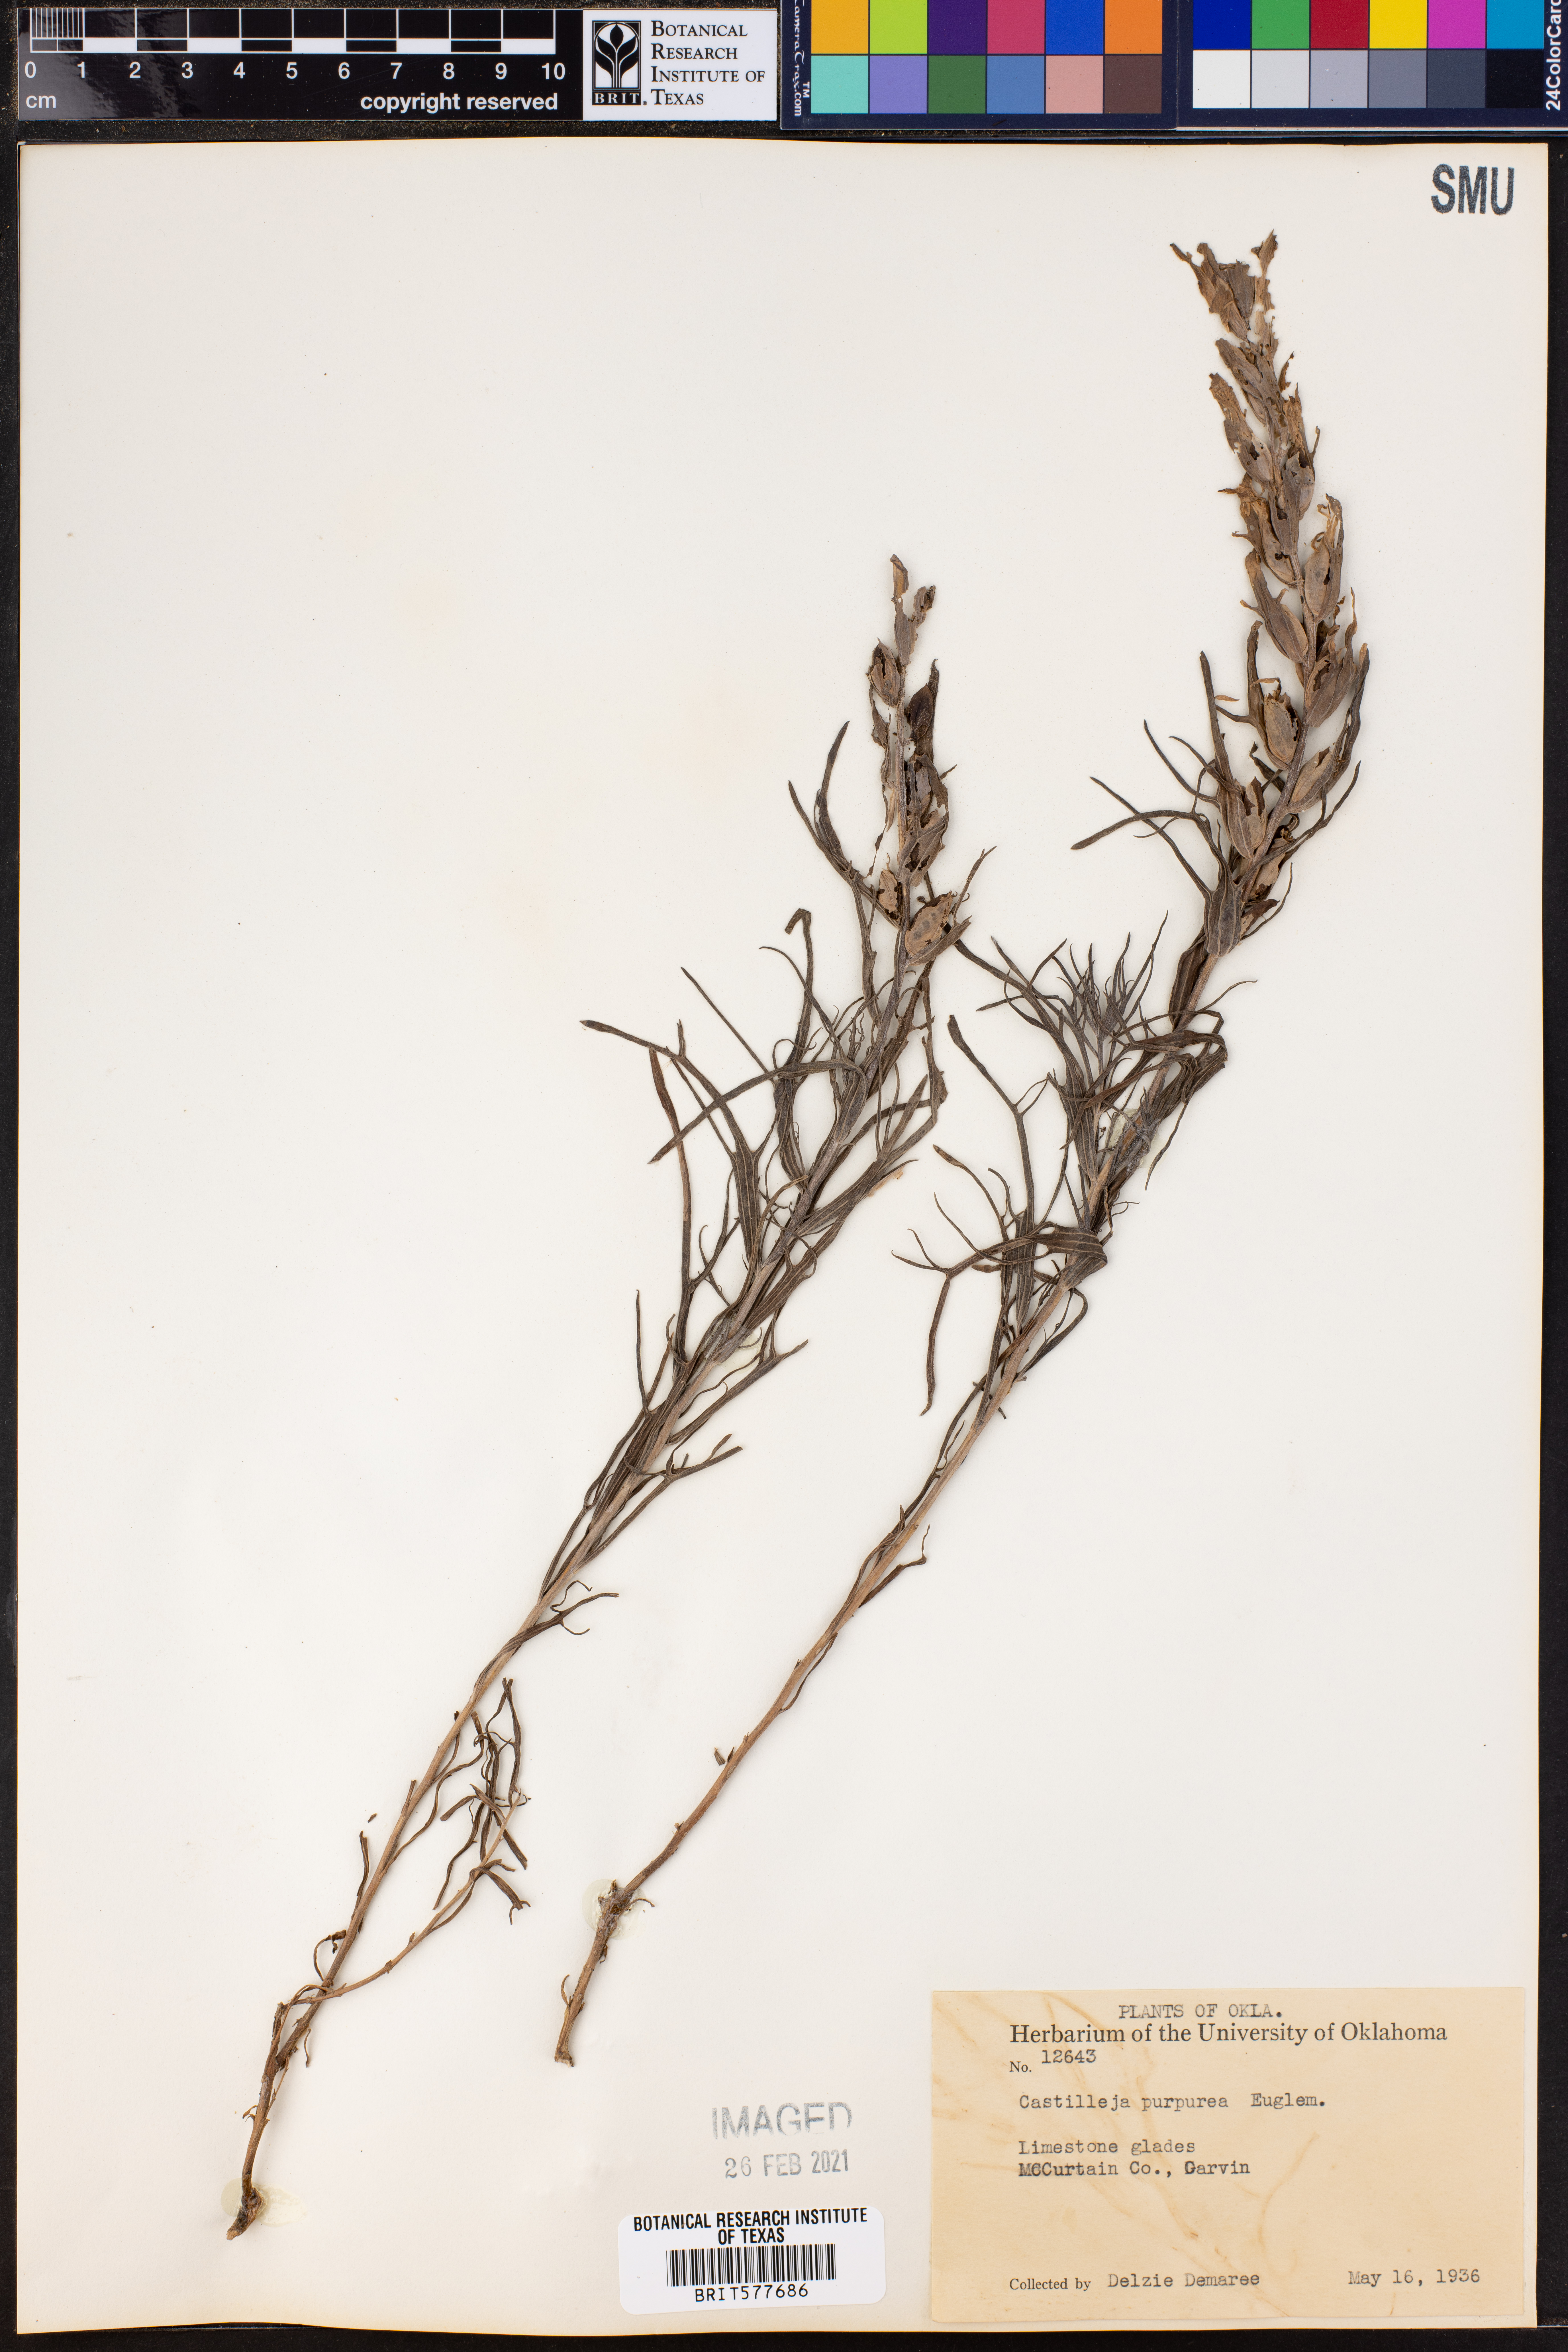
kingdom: Plantae
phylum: Tracheophyta
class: Magnoliopsida
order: Lamiales
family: Orobanchaceae
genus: Castilleja
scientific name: Castilleja purpurea
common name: Plains paintbrush
